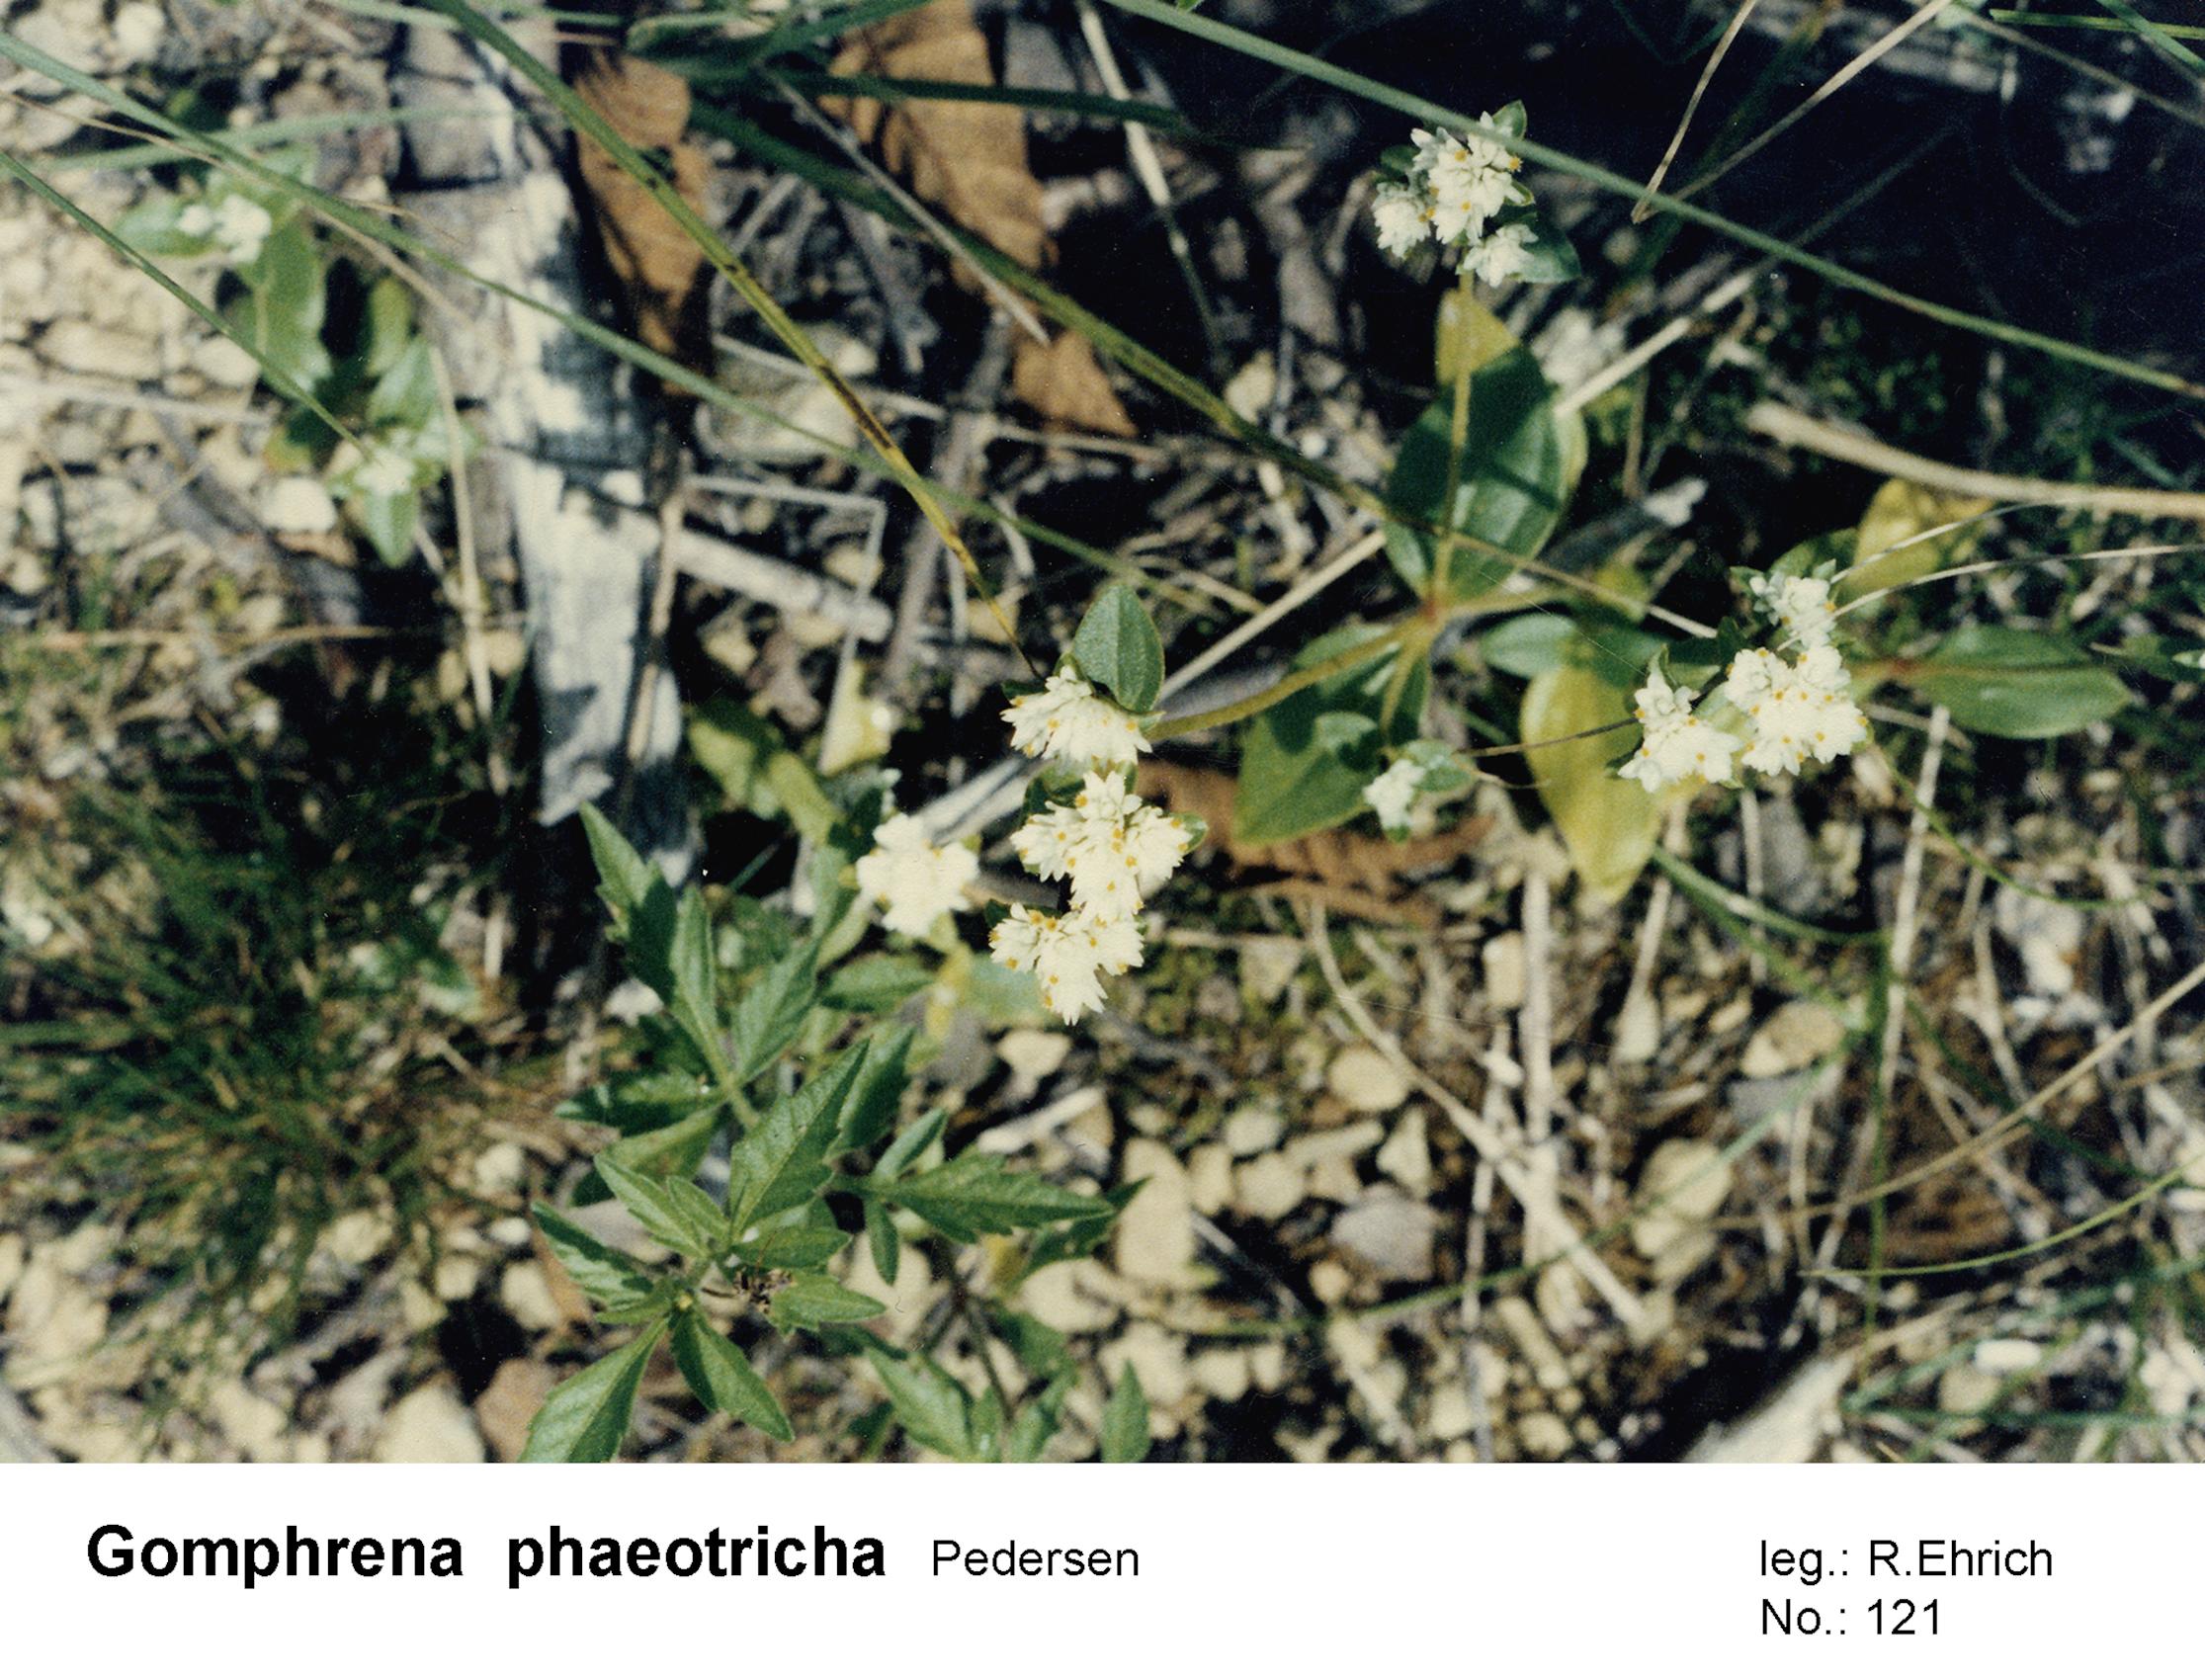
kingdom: Plantae
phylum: Tracheophyta
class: Magnoliopsida
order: Caryophyllales
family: Amaranthaceae
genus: Gomphrena
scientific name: Gomphrena phaeotricha
